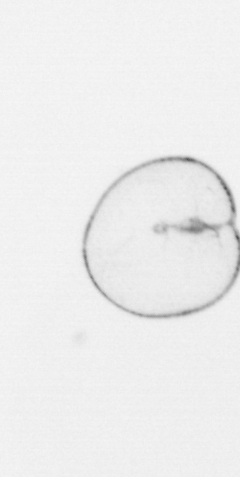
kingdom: Chromista
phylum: Myzozoa
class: Dinophyceae
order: Noctilucales
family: Noctilucaceae
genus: Noctiluca
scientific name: Noctiluca scintillans
